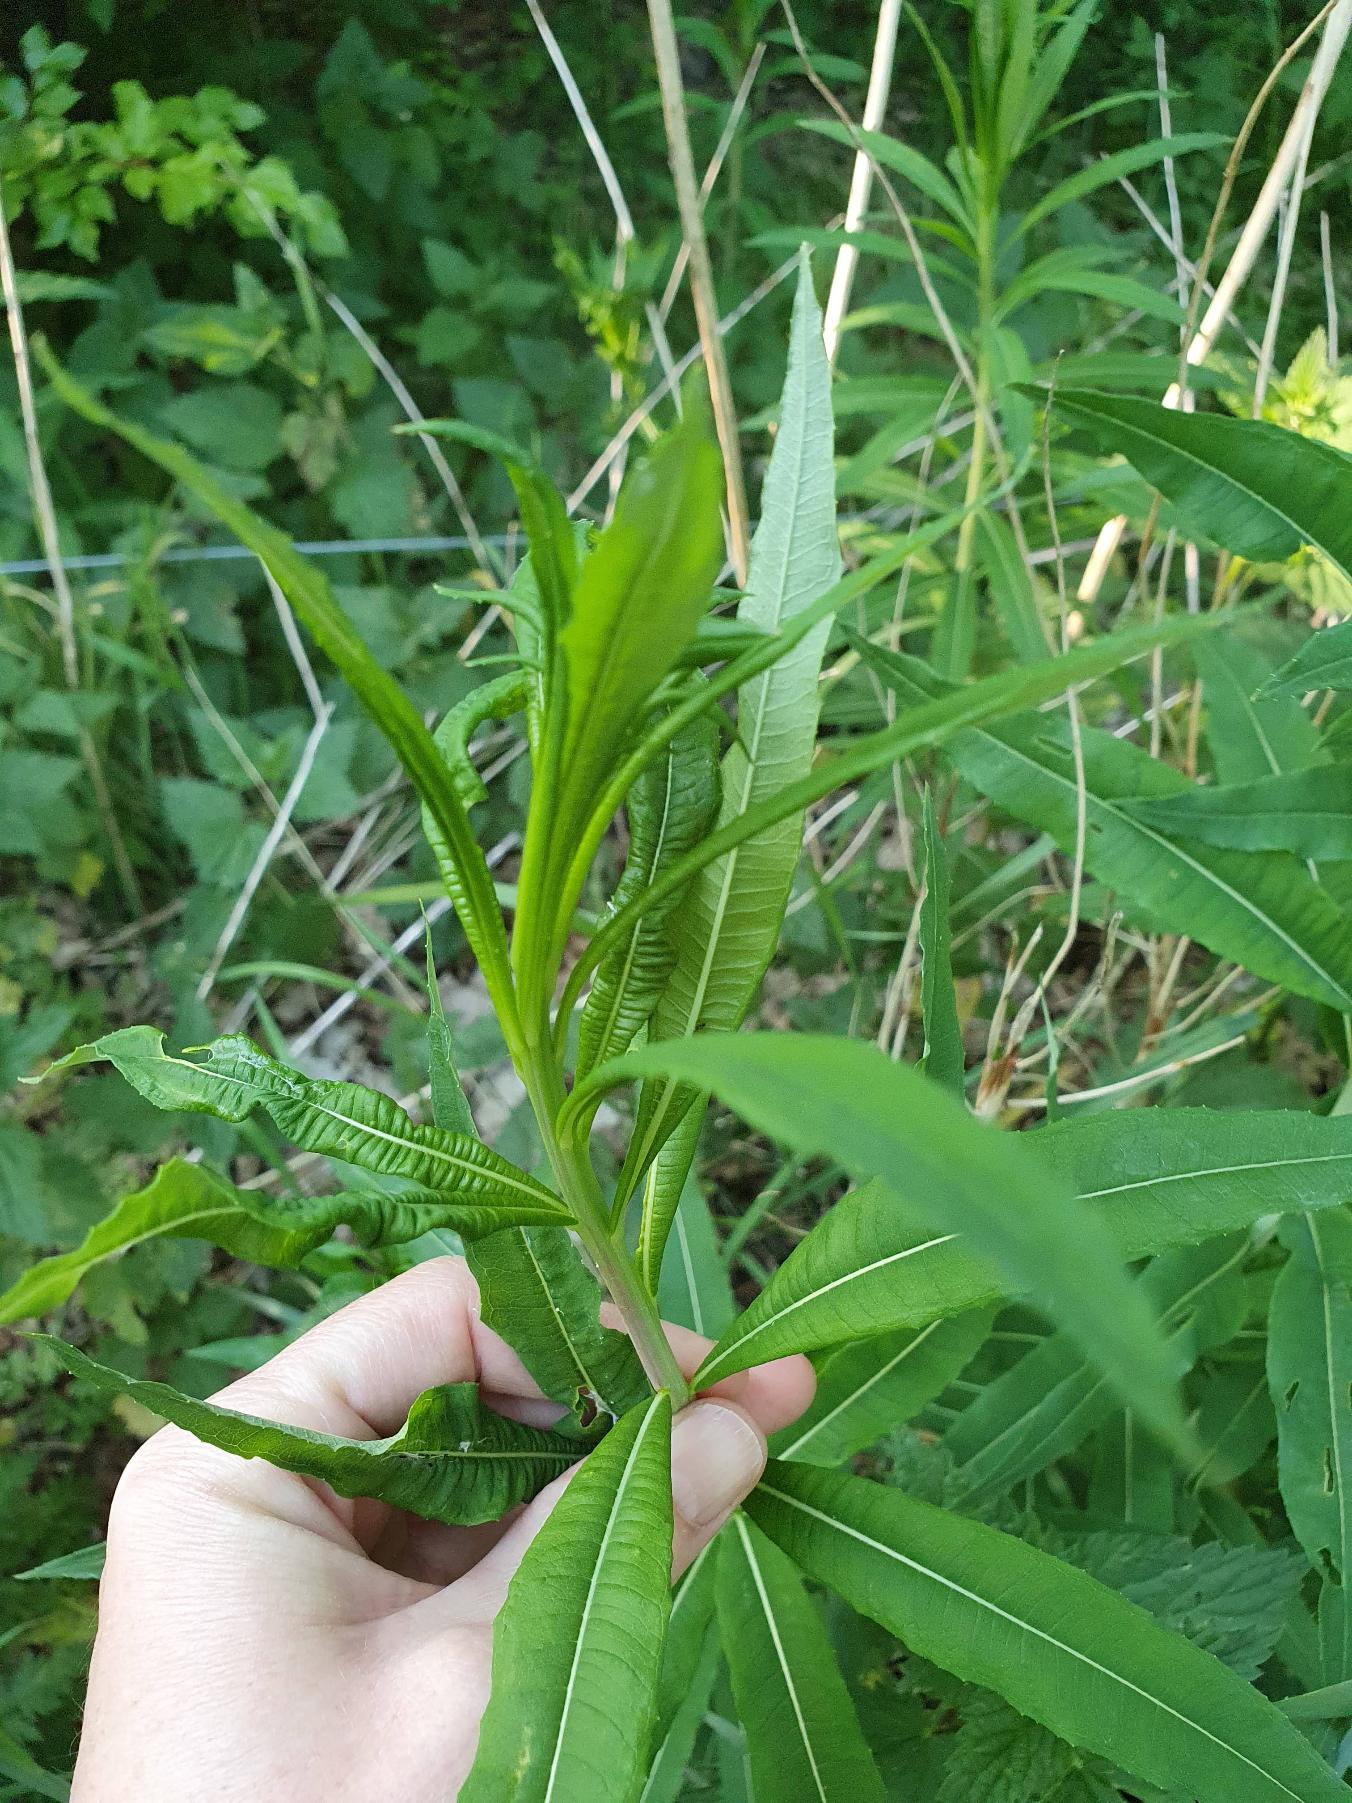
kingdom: Plantae
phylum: Tracheophyta
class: Magnoliopsida
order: Myrtales
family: Onagraceae
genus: Chamaenerion
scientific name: Chamaenerion angustifolium
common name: Gederams
